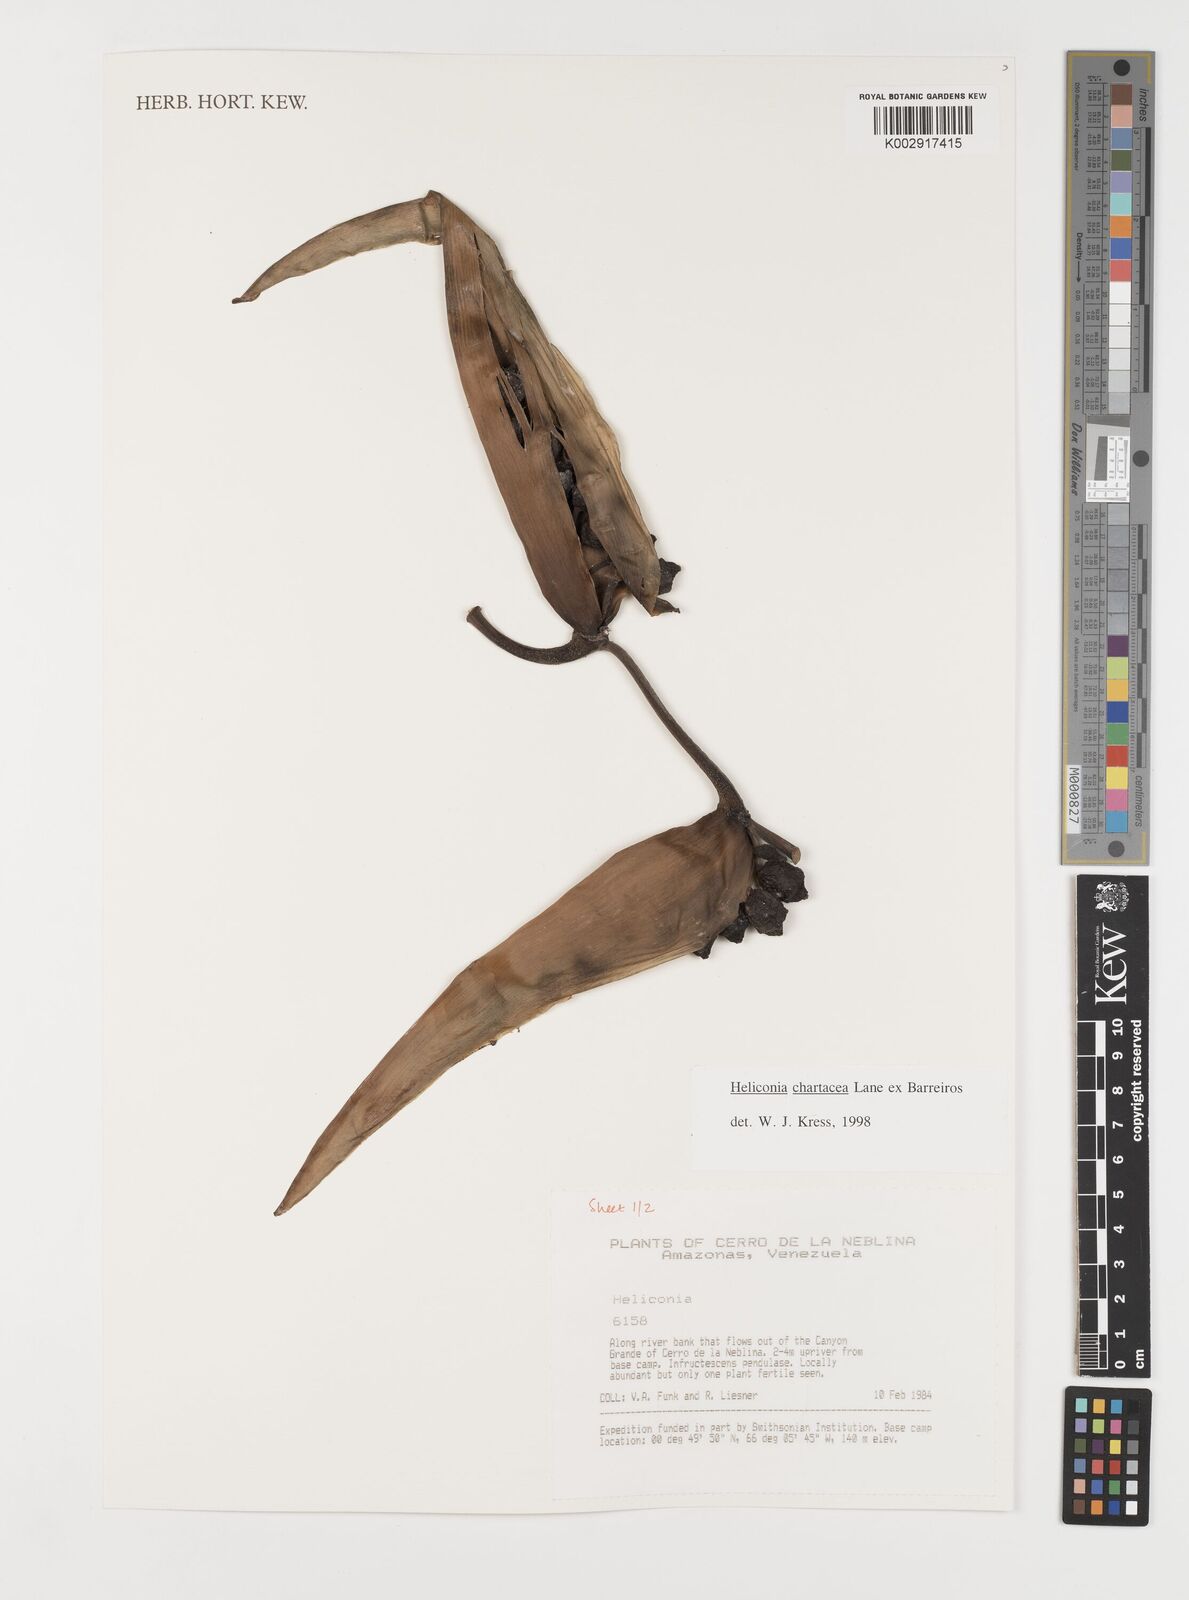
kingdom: Plantae
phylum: Tracheophyta
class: Liliopsida
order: Zingiberales
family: Heliconiaceae
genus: Heliconia
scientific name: Heliconia chartacea
